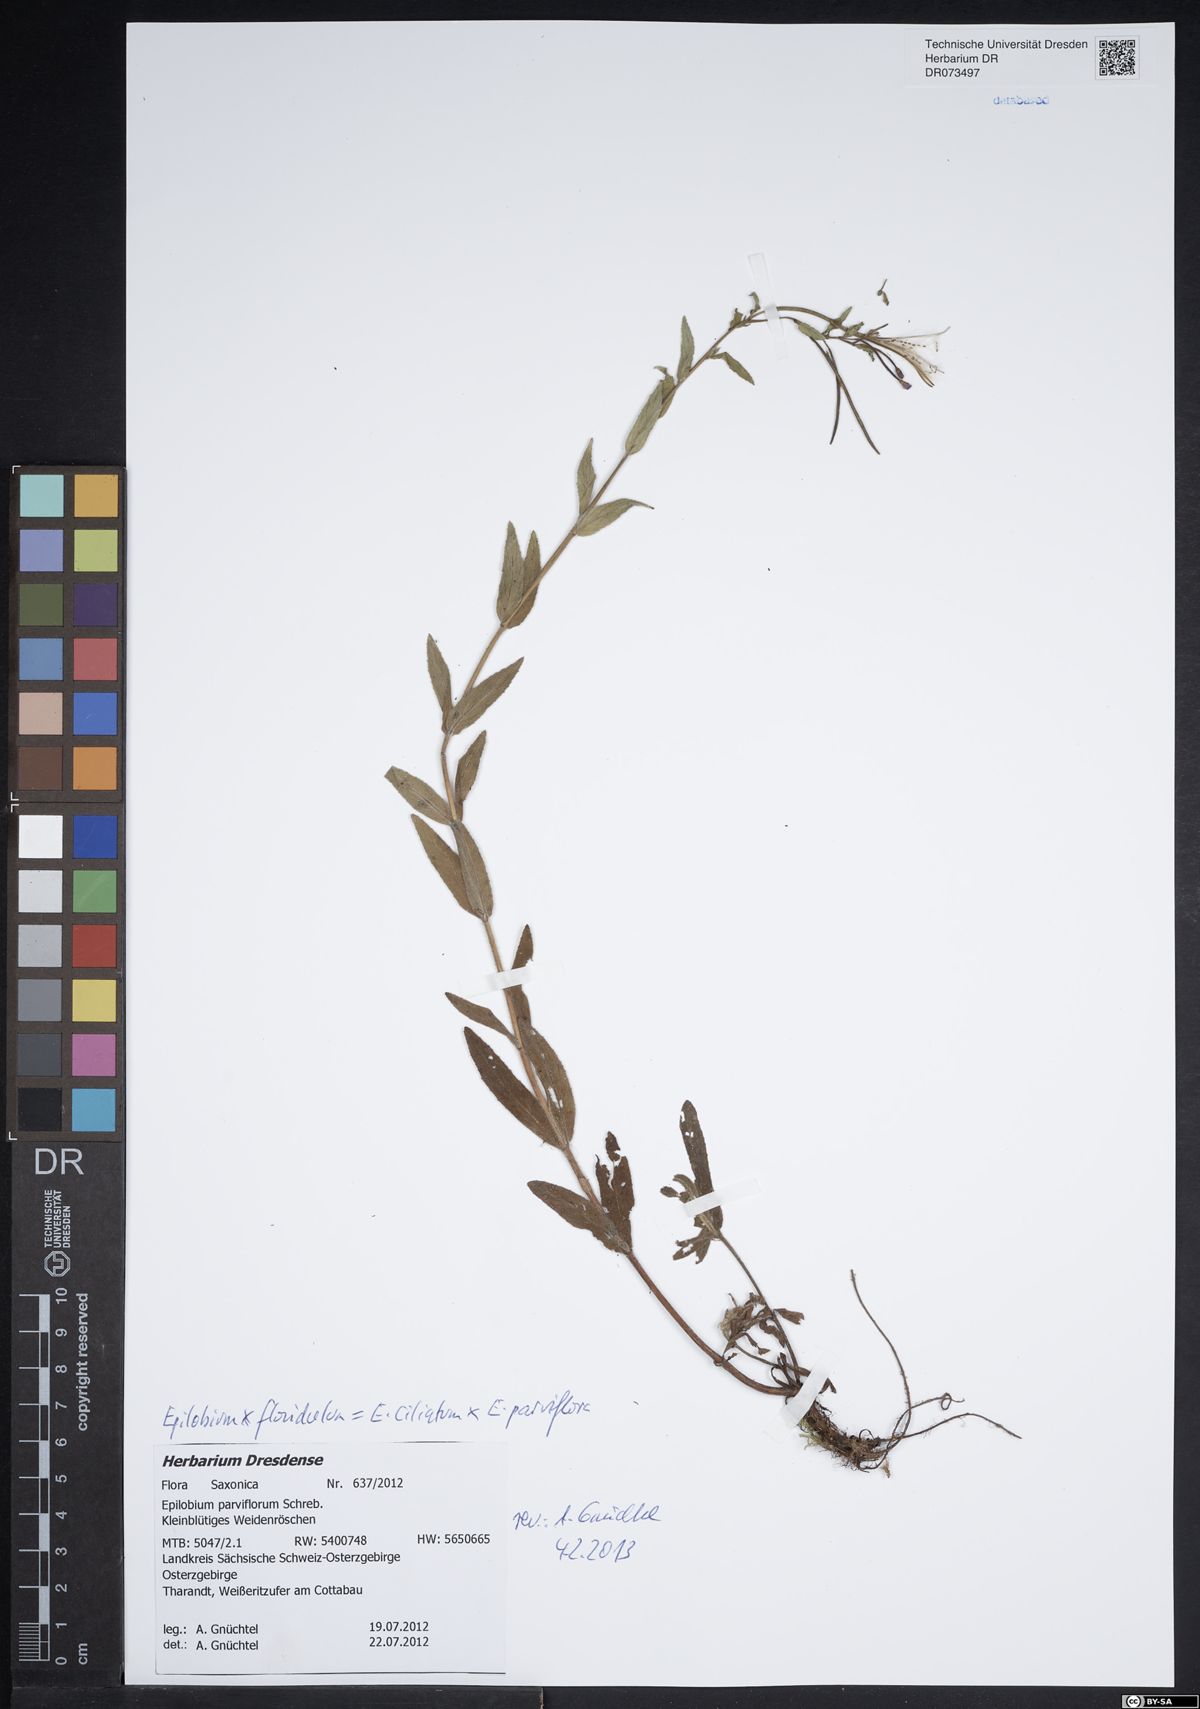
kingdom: Plantae
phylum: Tracheophyta
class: Magnoliopsida
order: Myrtales
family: Onagraceae
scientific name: Onagraceae
